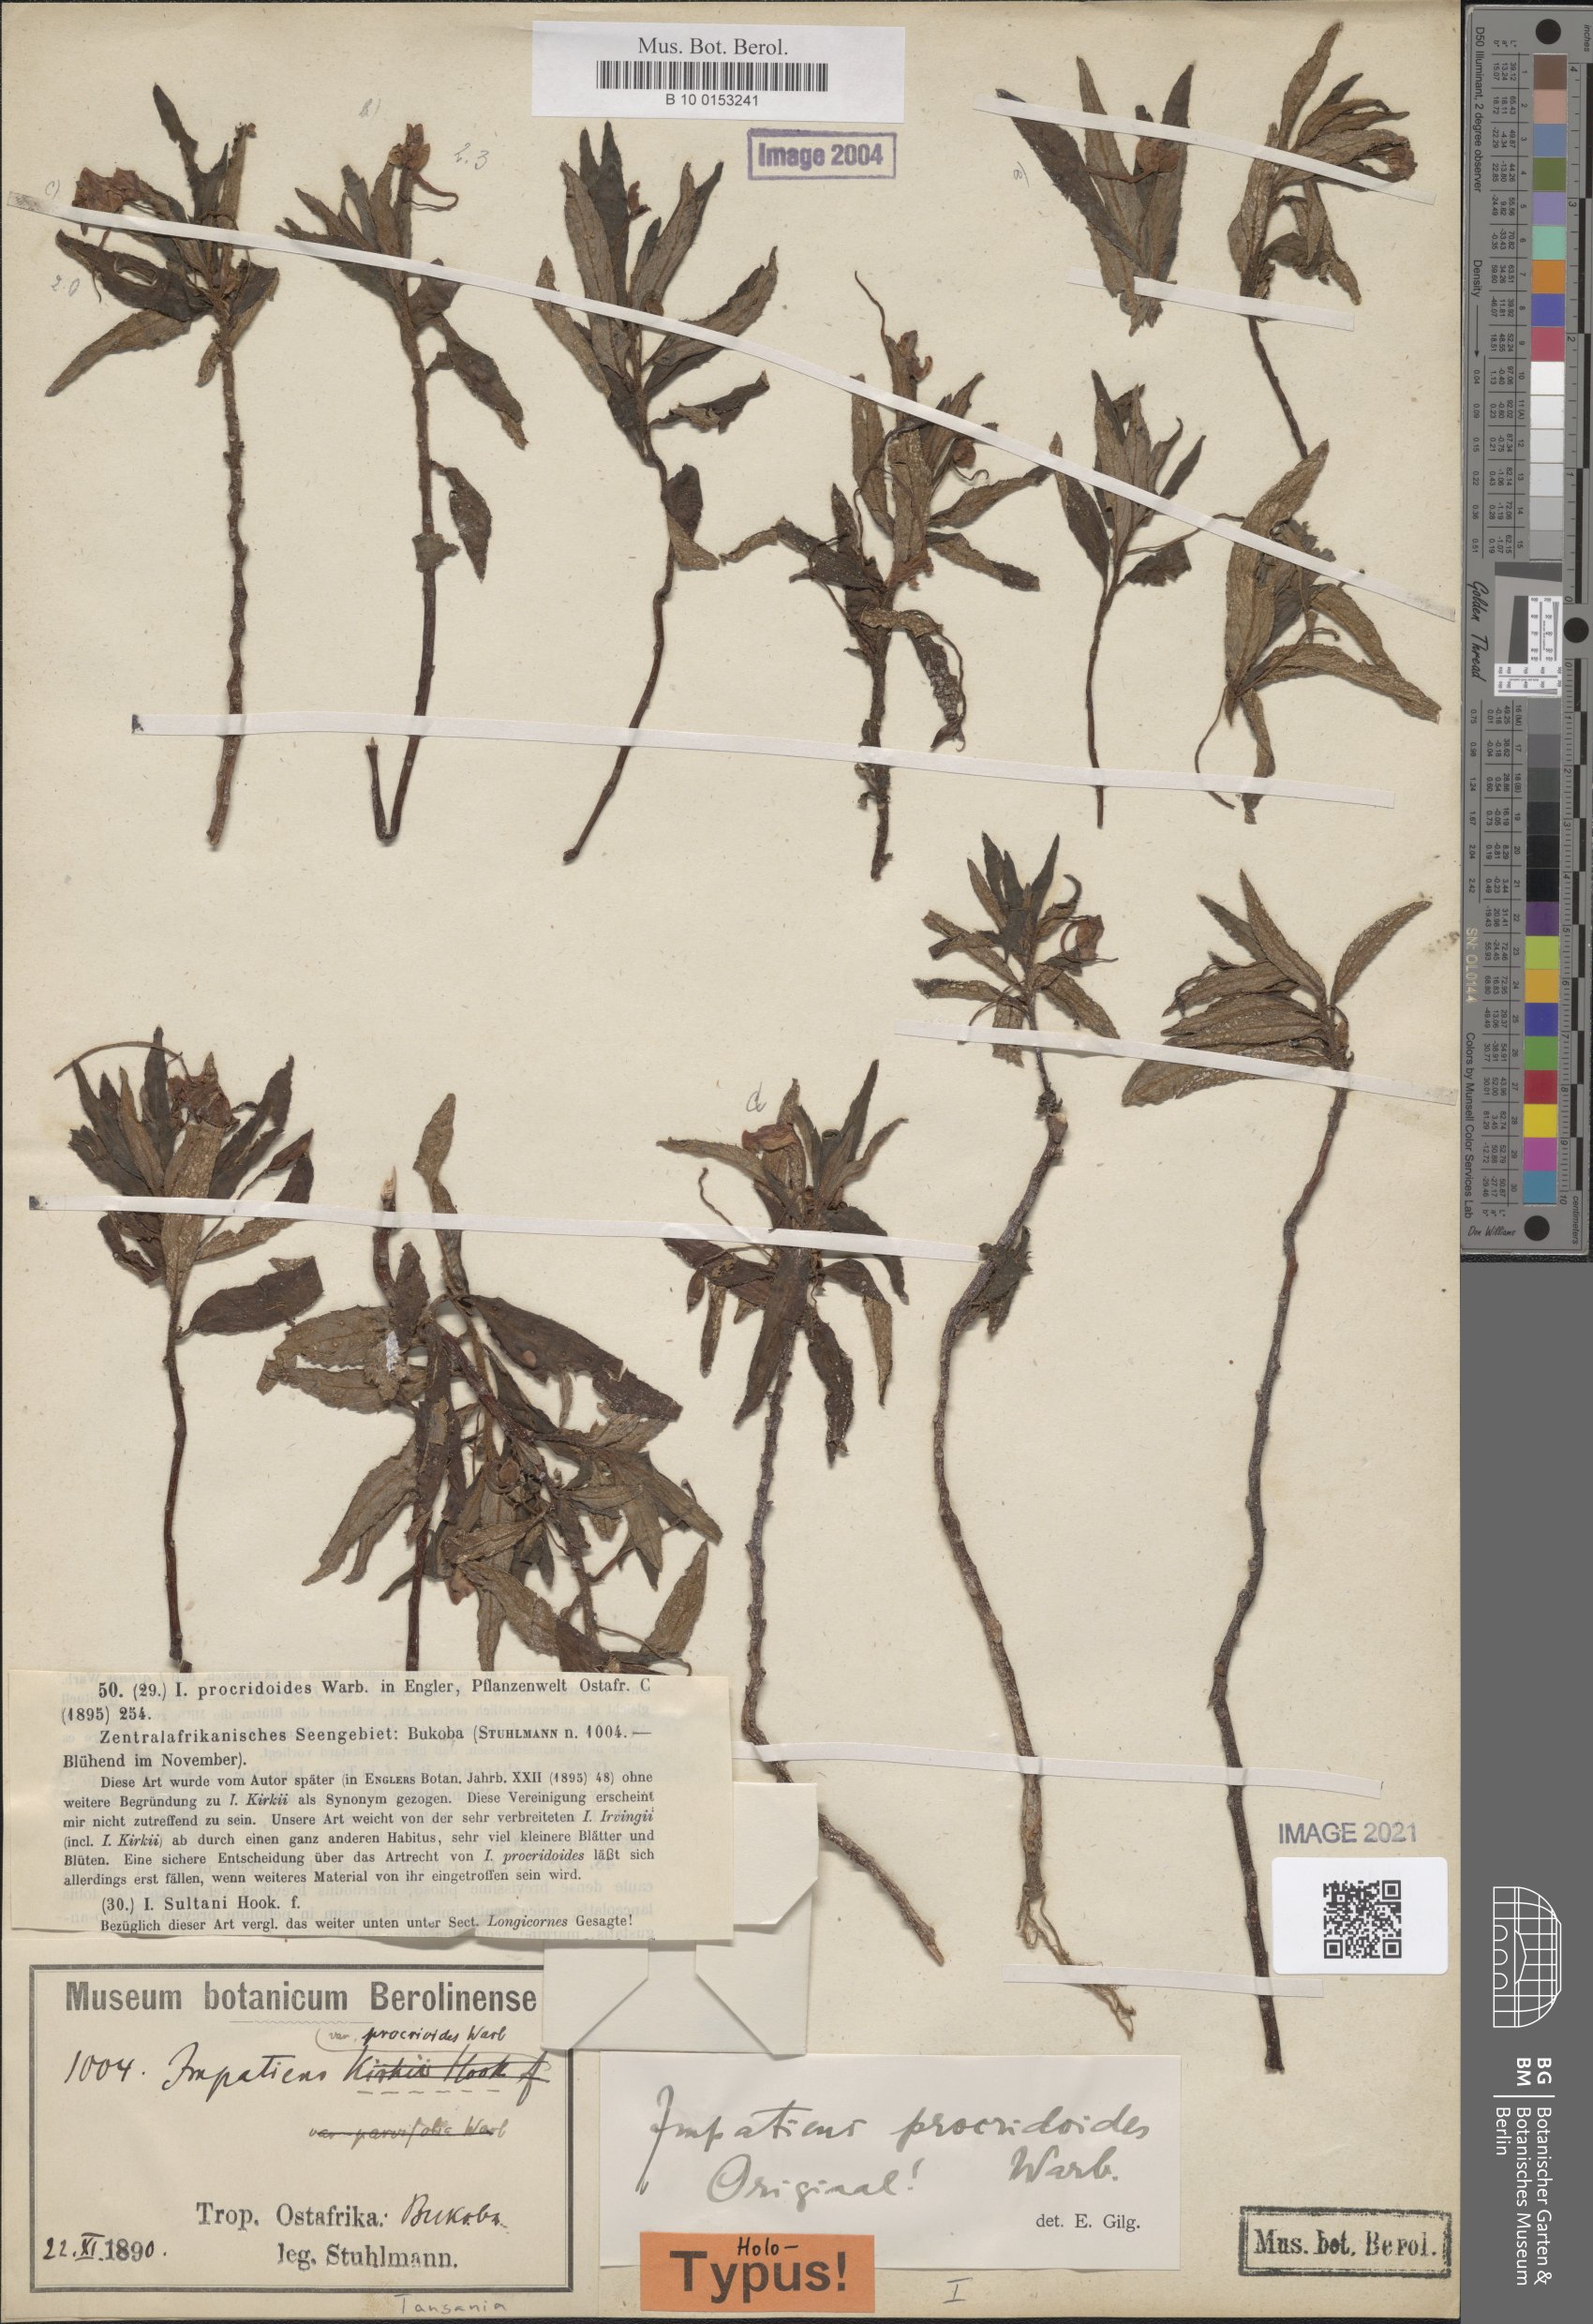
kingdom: Plantae
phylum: Tracheophyta
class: Magnoliopsida
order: Ericales
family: Balsaminaceae
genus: Impatiens
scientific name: Impatiens assurgens
